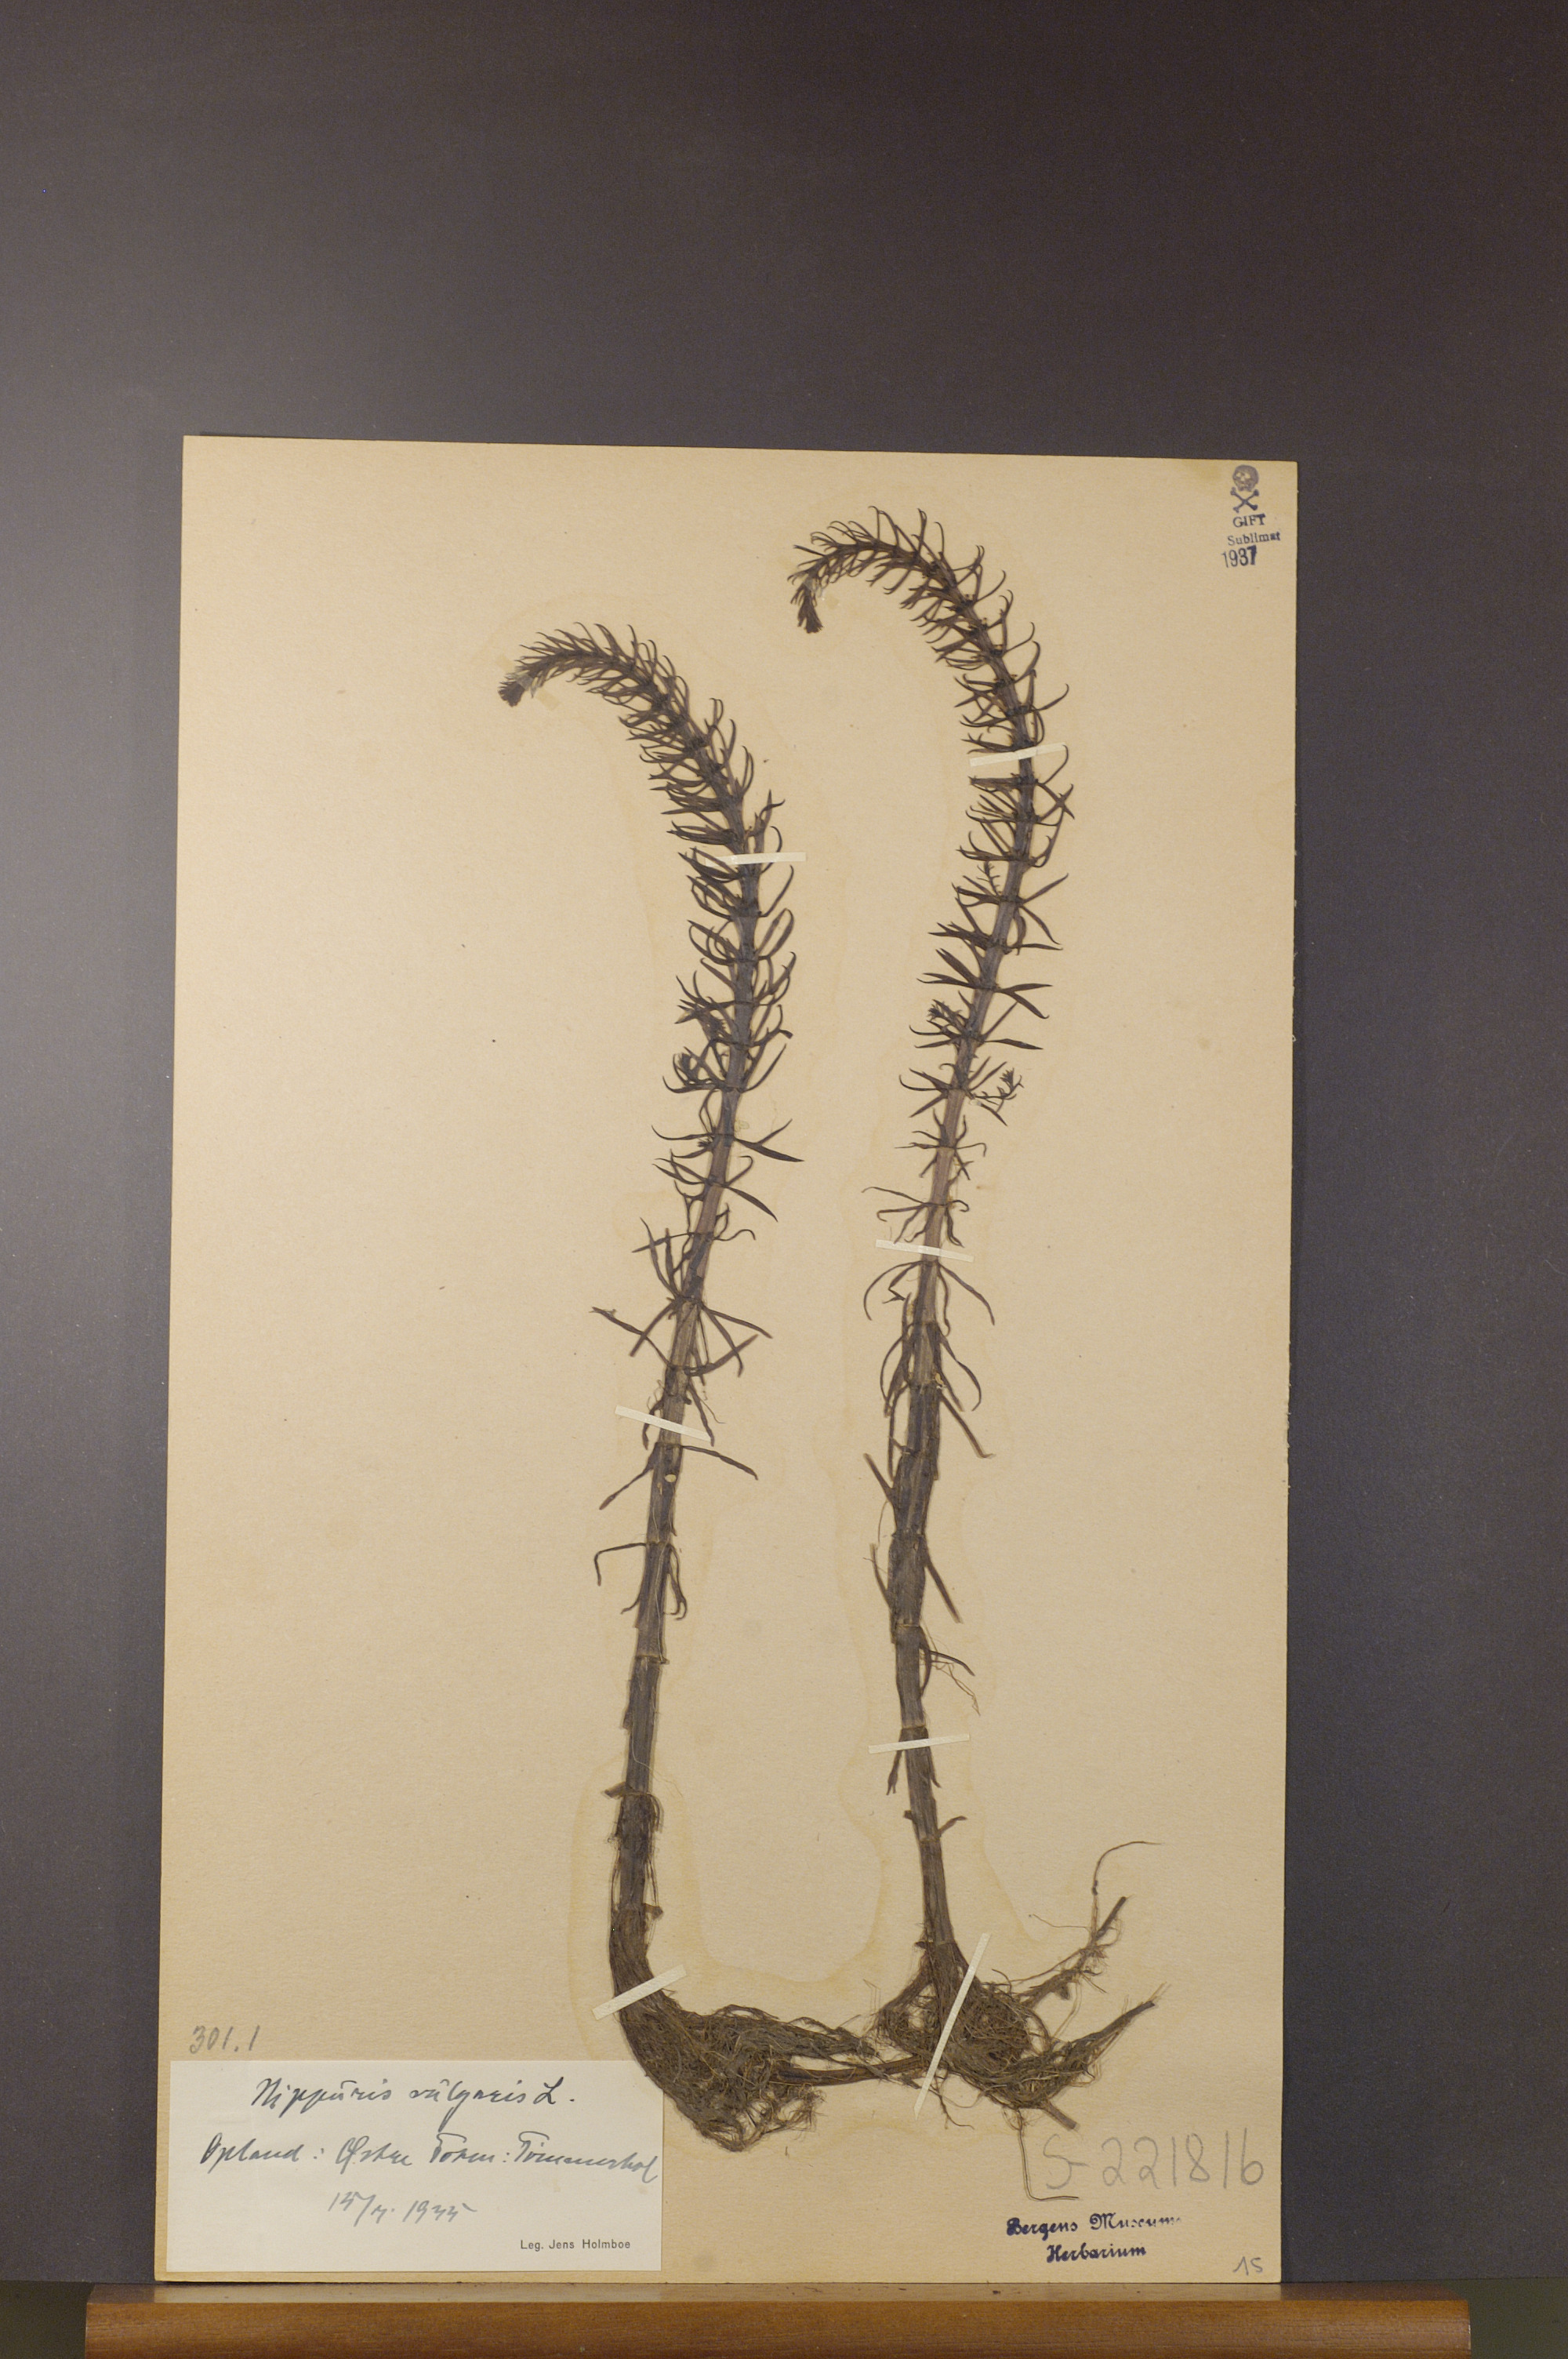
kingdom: Plantae
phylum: Tracheophyta
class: Magnoliopsida
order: Lamiales
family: Plantaginaceae
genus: Hippuris
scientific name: Hippuris vulgaris
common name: Mare's-tail
